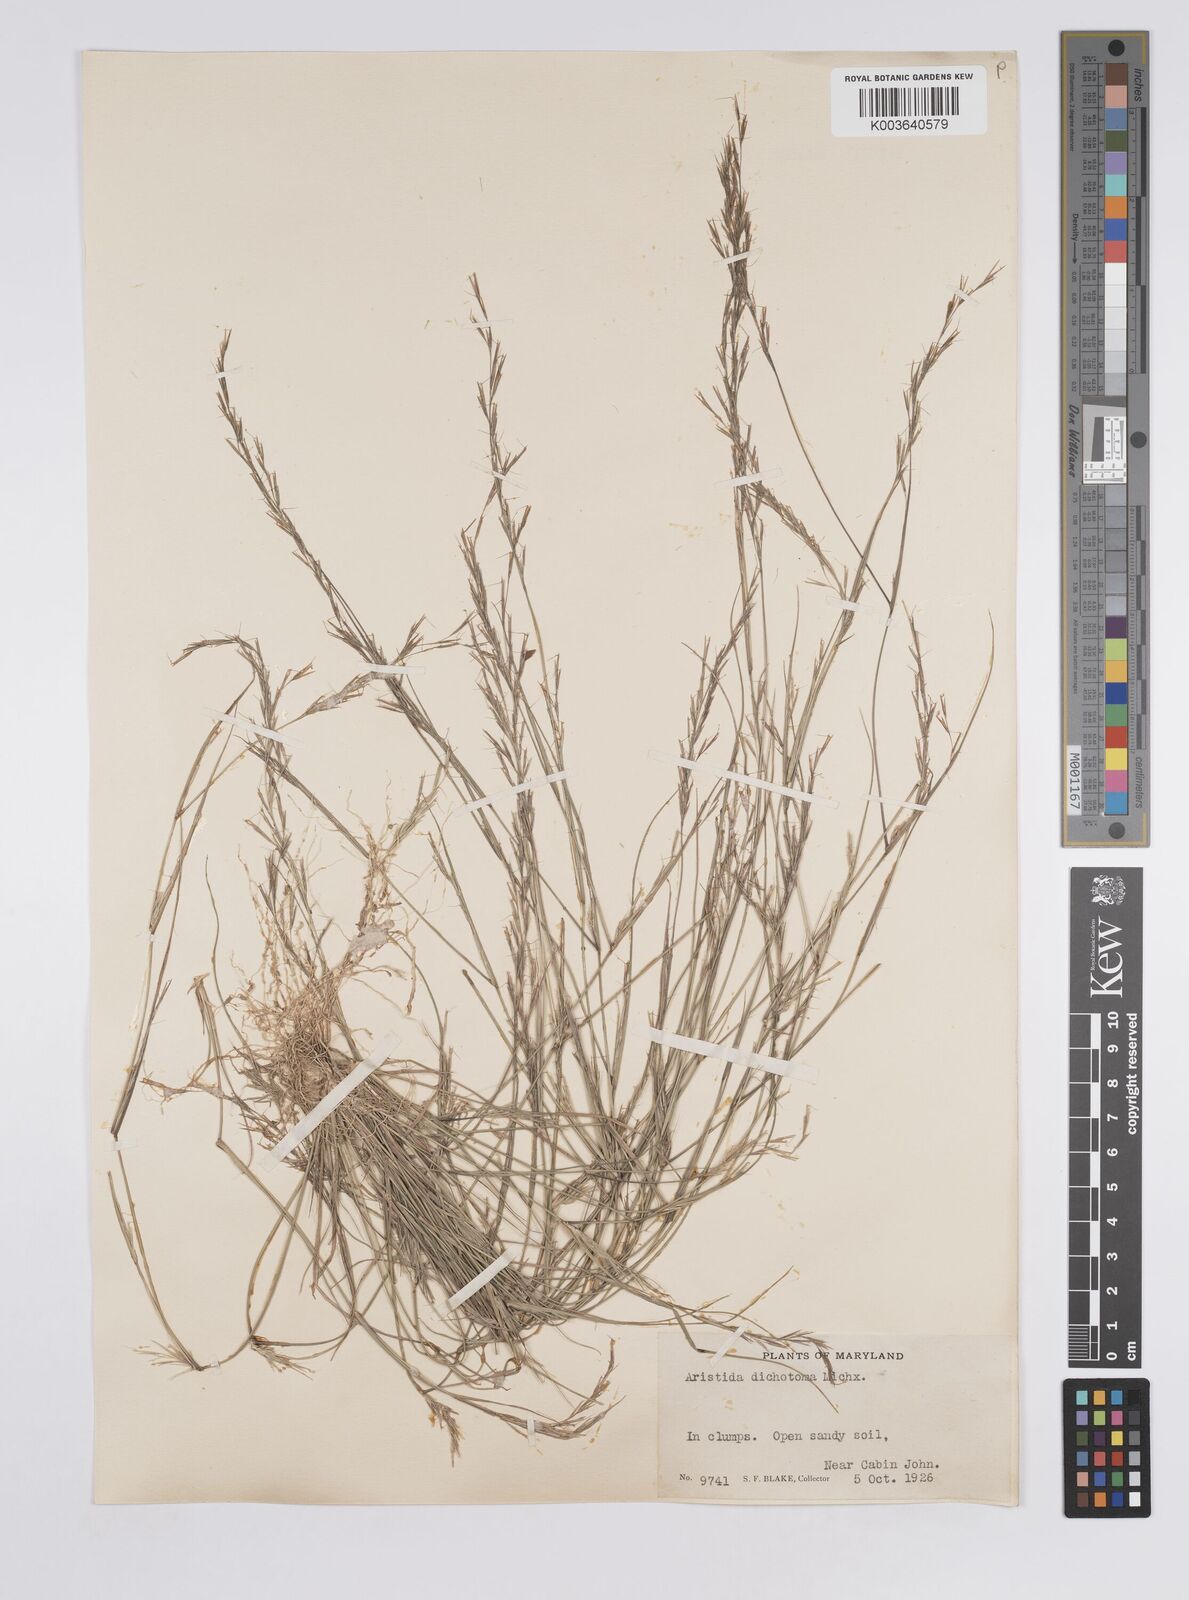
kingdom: Plantae
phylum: Tracheophyta
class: Liliopsida
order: Poales
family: Poaceae
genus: Aristida
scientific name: Aristida dichotoma
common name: Churchmouse three-awn
